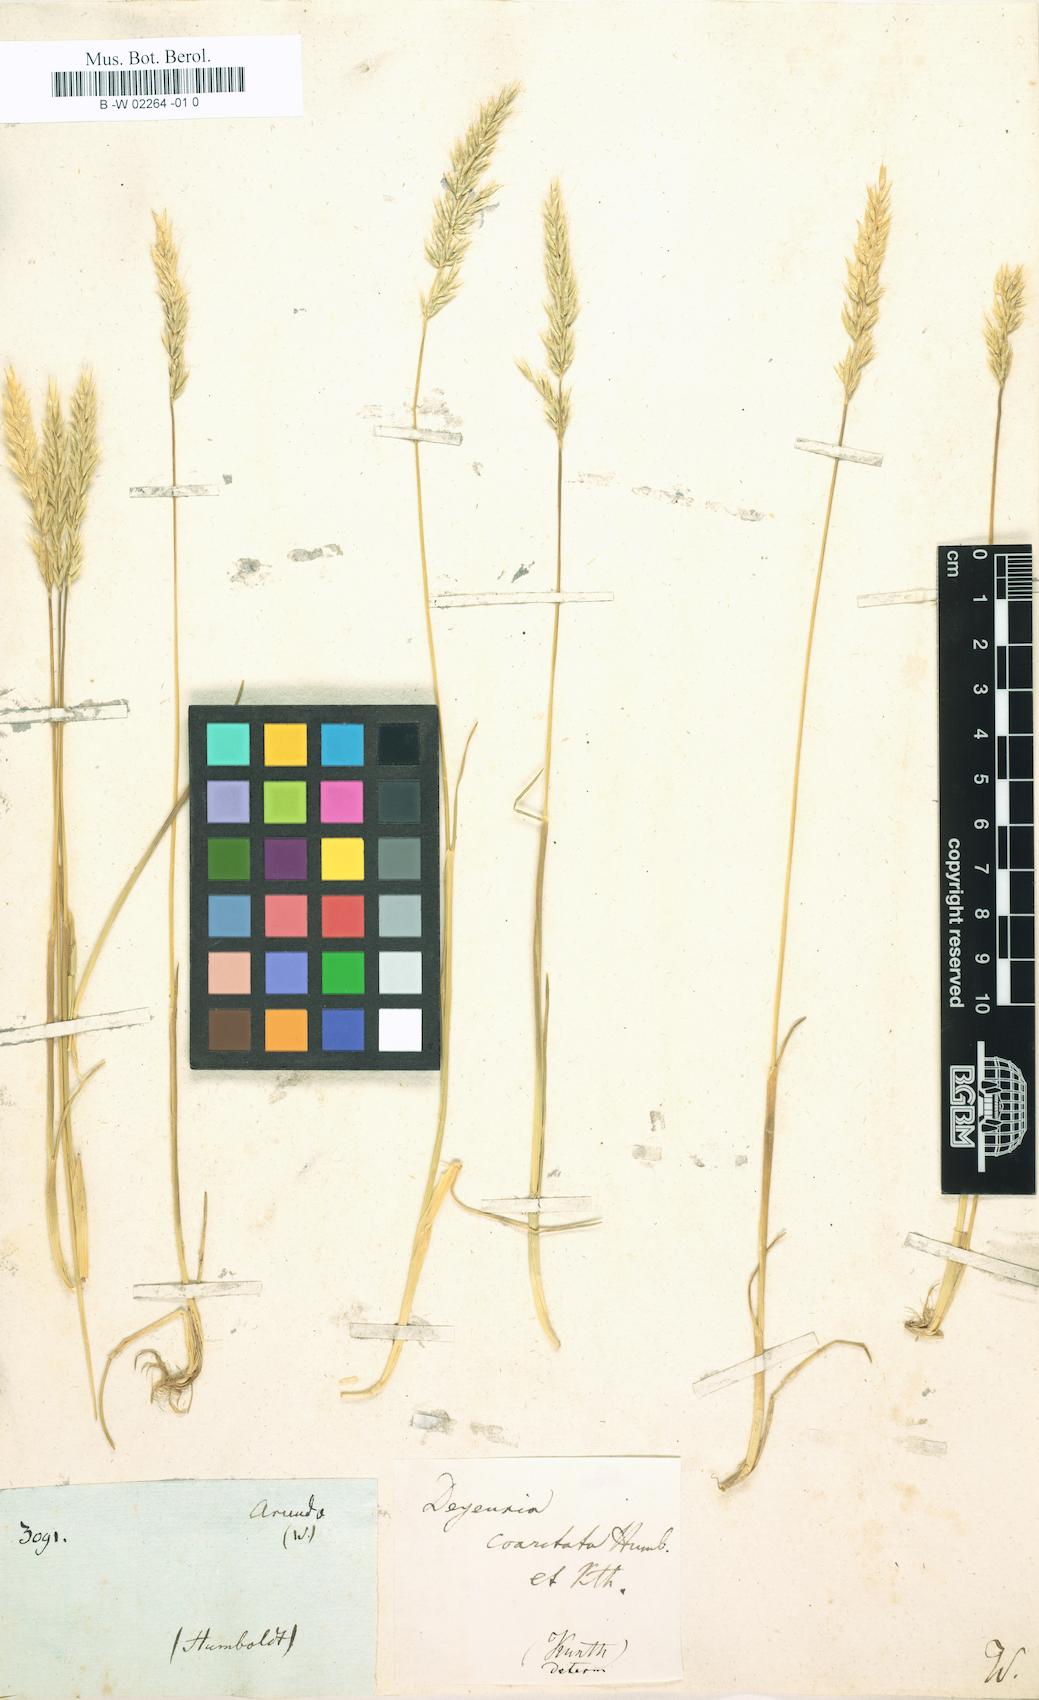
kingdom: Plantae
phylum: Tracheophyta
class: Liliopsida
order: Poales
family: Poaceae
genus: Cinnagrostis
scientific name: Cinnagrostis coarctata
